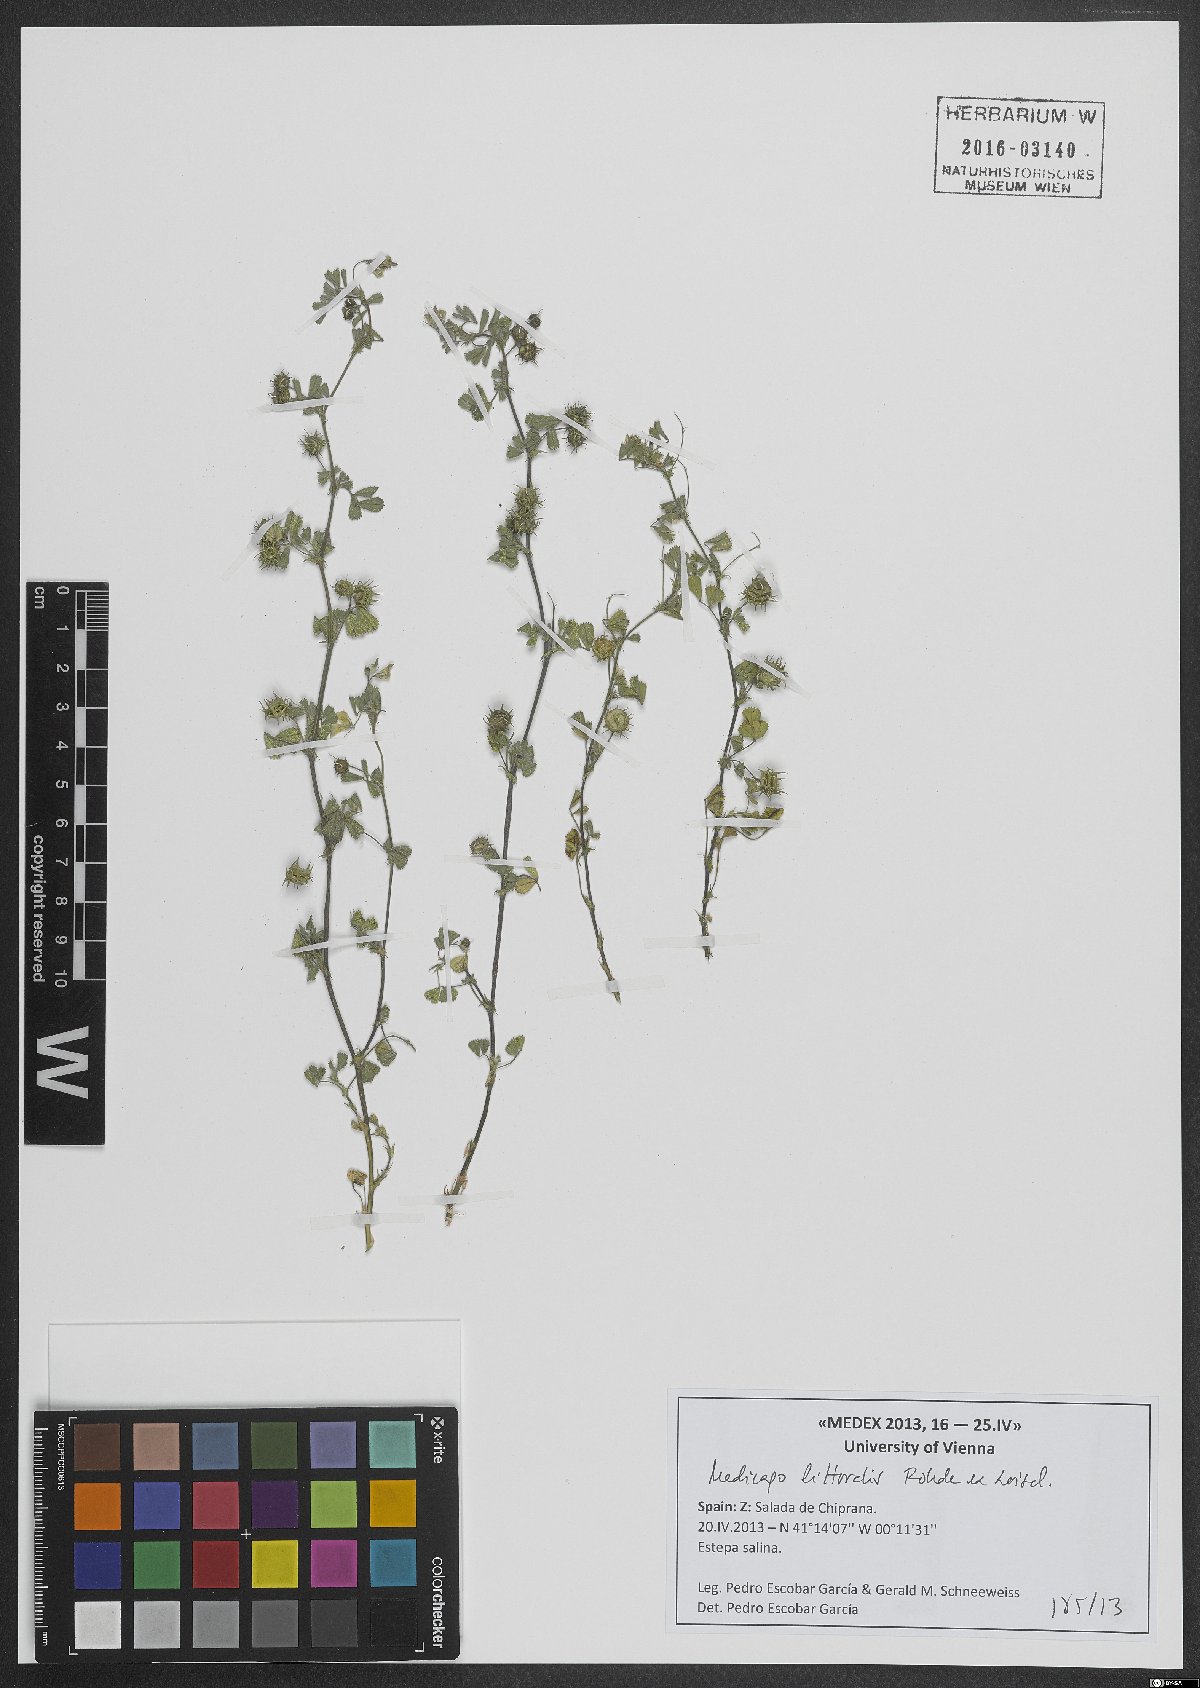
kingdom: Plantae
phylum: Tracheophyta
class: Magnoliopsida
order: Fabales
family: Fabaceae
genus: Medicago
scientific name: Medicago littoralis
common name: Shore medick
